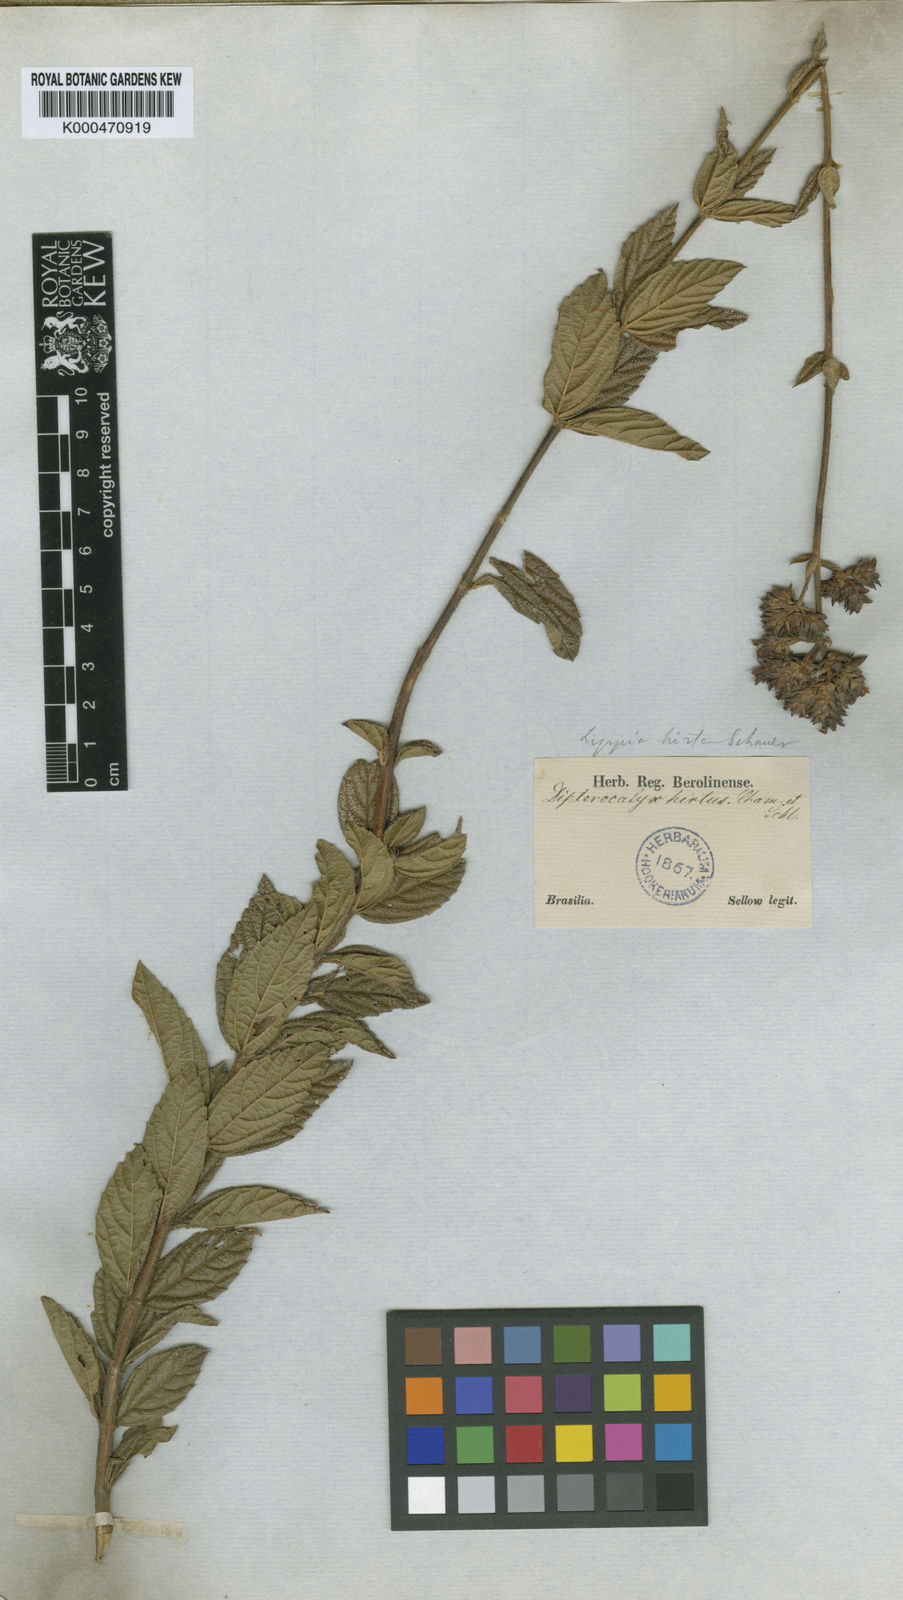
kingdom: Plantae
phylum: Tracheophyta
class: Magnoliopsida
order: Lamiales
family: Verbenaceae
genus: Lippia
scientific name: Lippia
